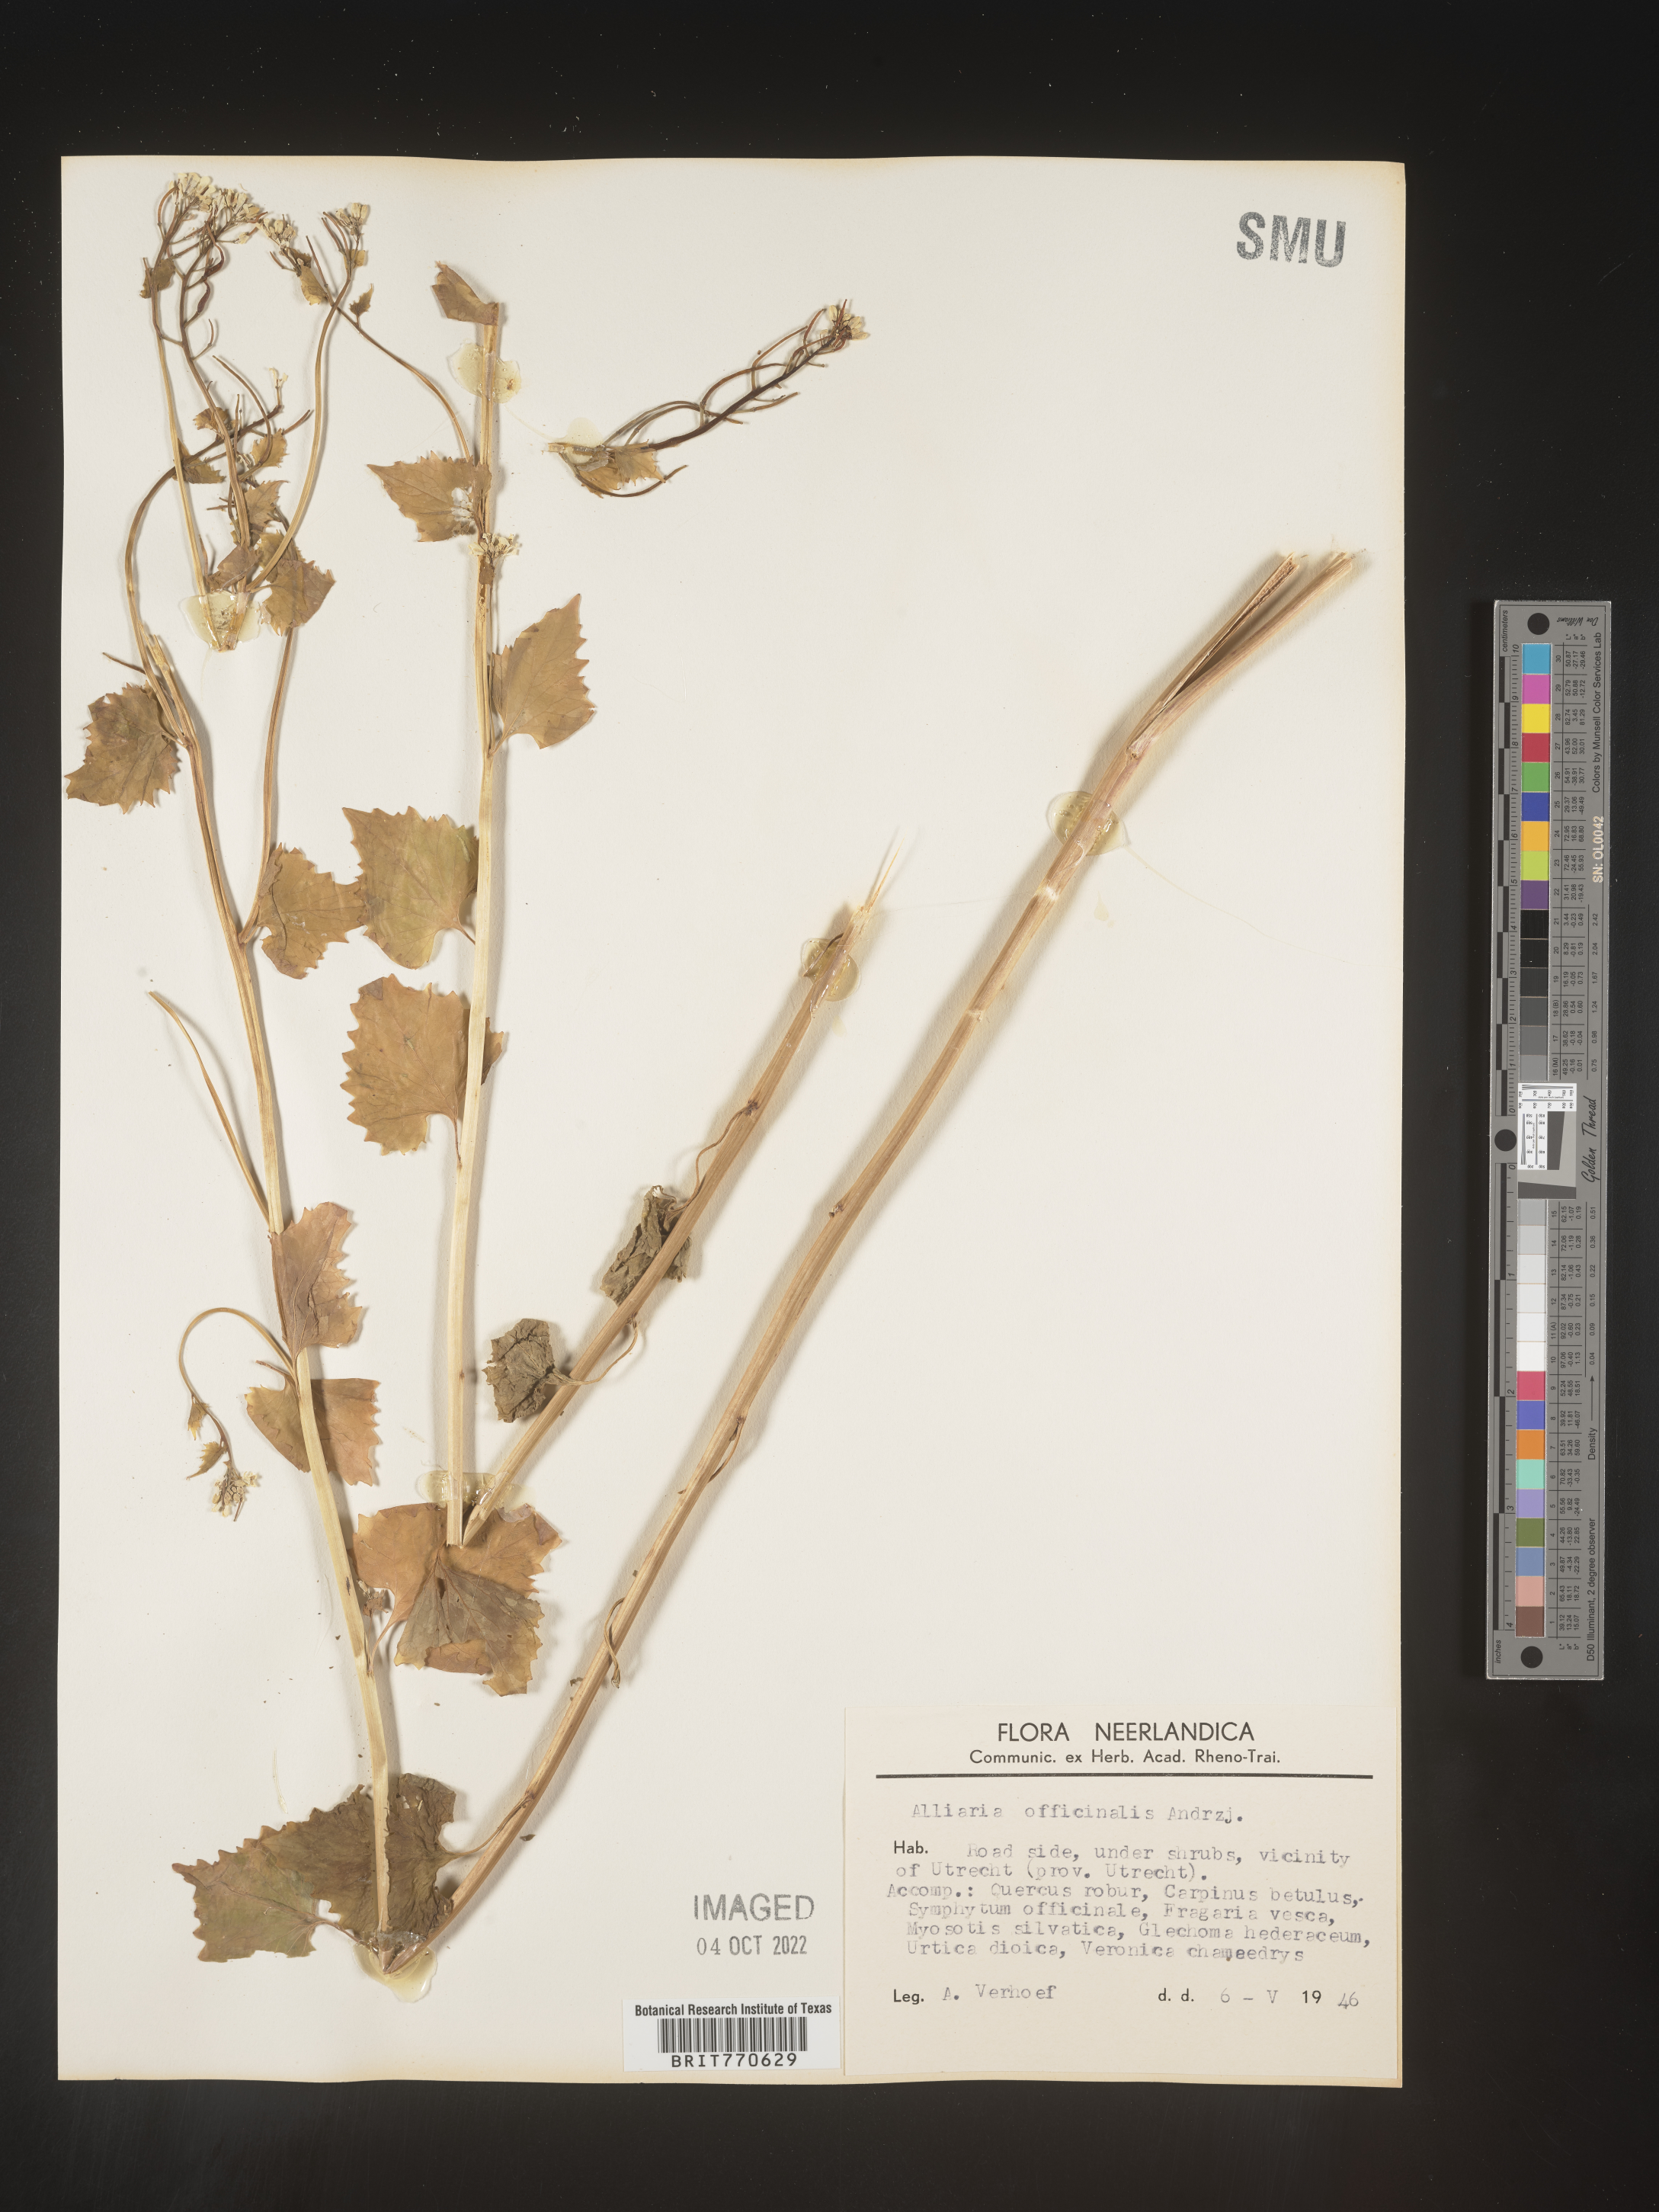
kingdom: Plantae
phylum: Tracheophyta
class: Magnoliopsida
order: Brassicales
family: Brassicaceae
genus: Alliaria
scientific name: Alliaria
